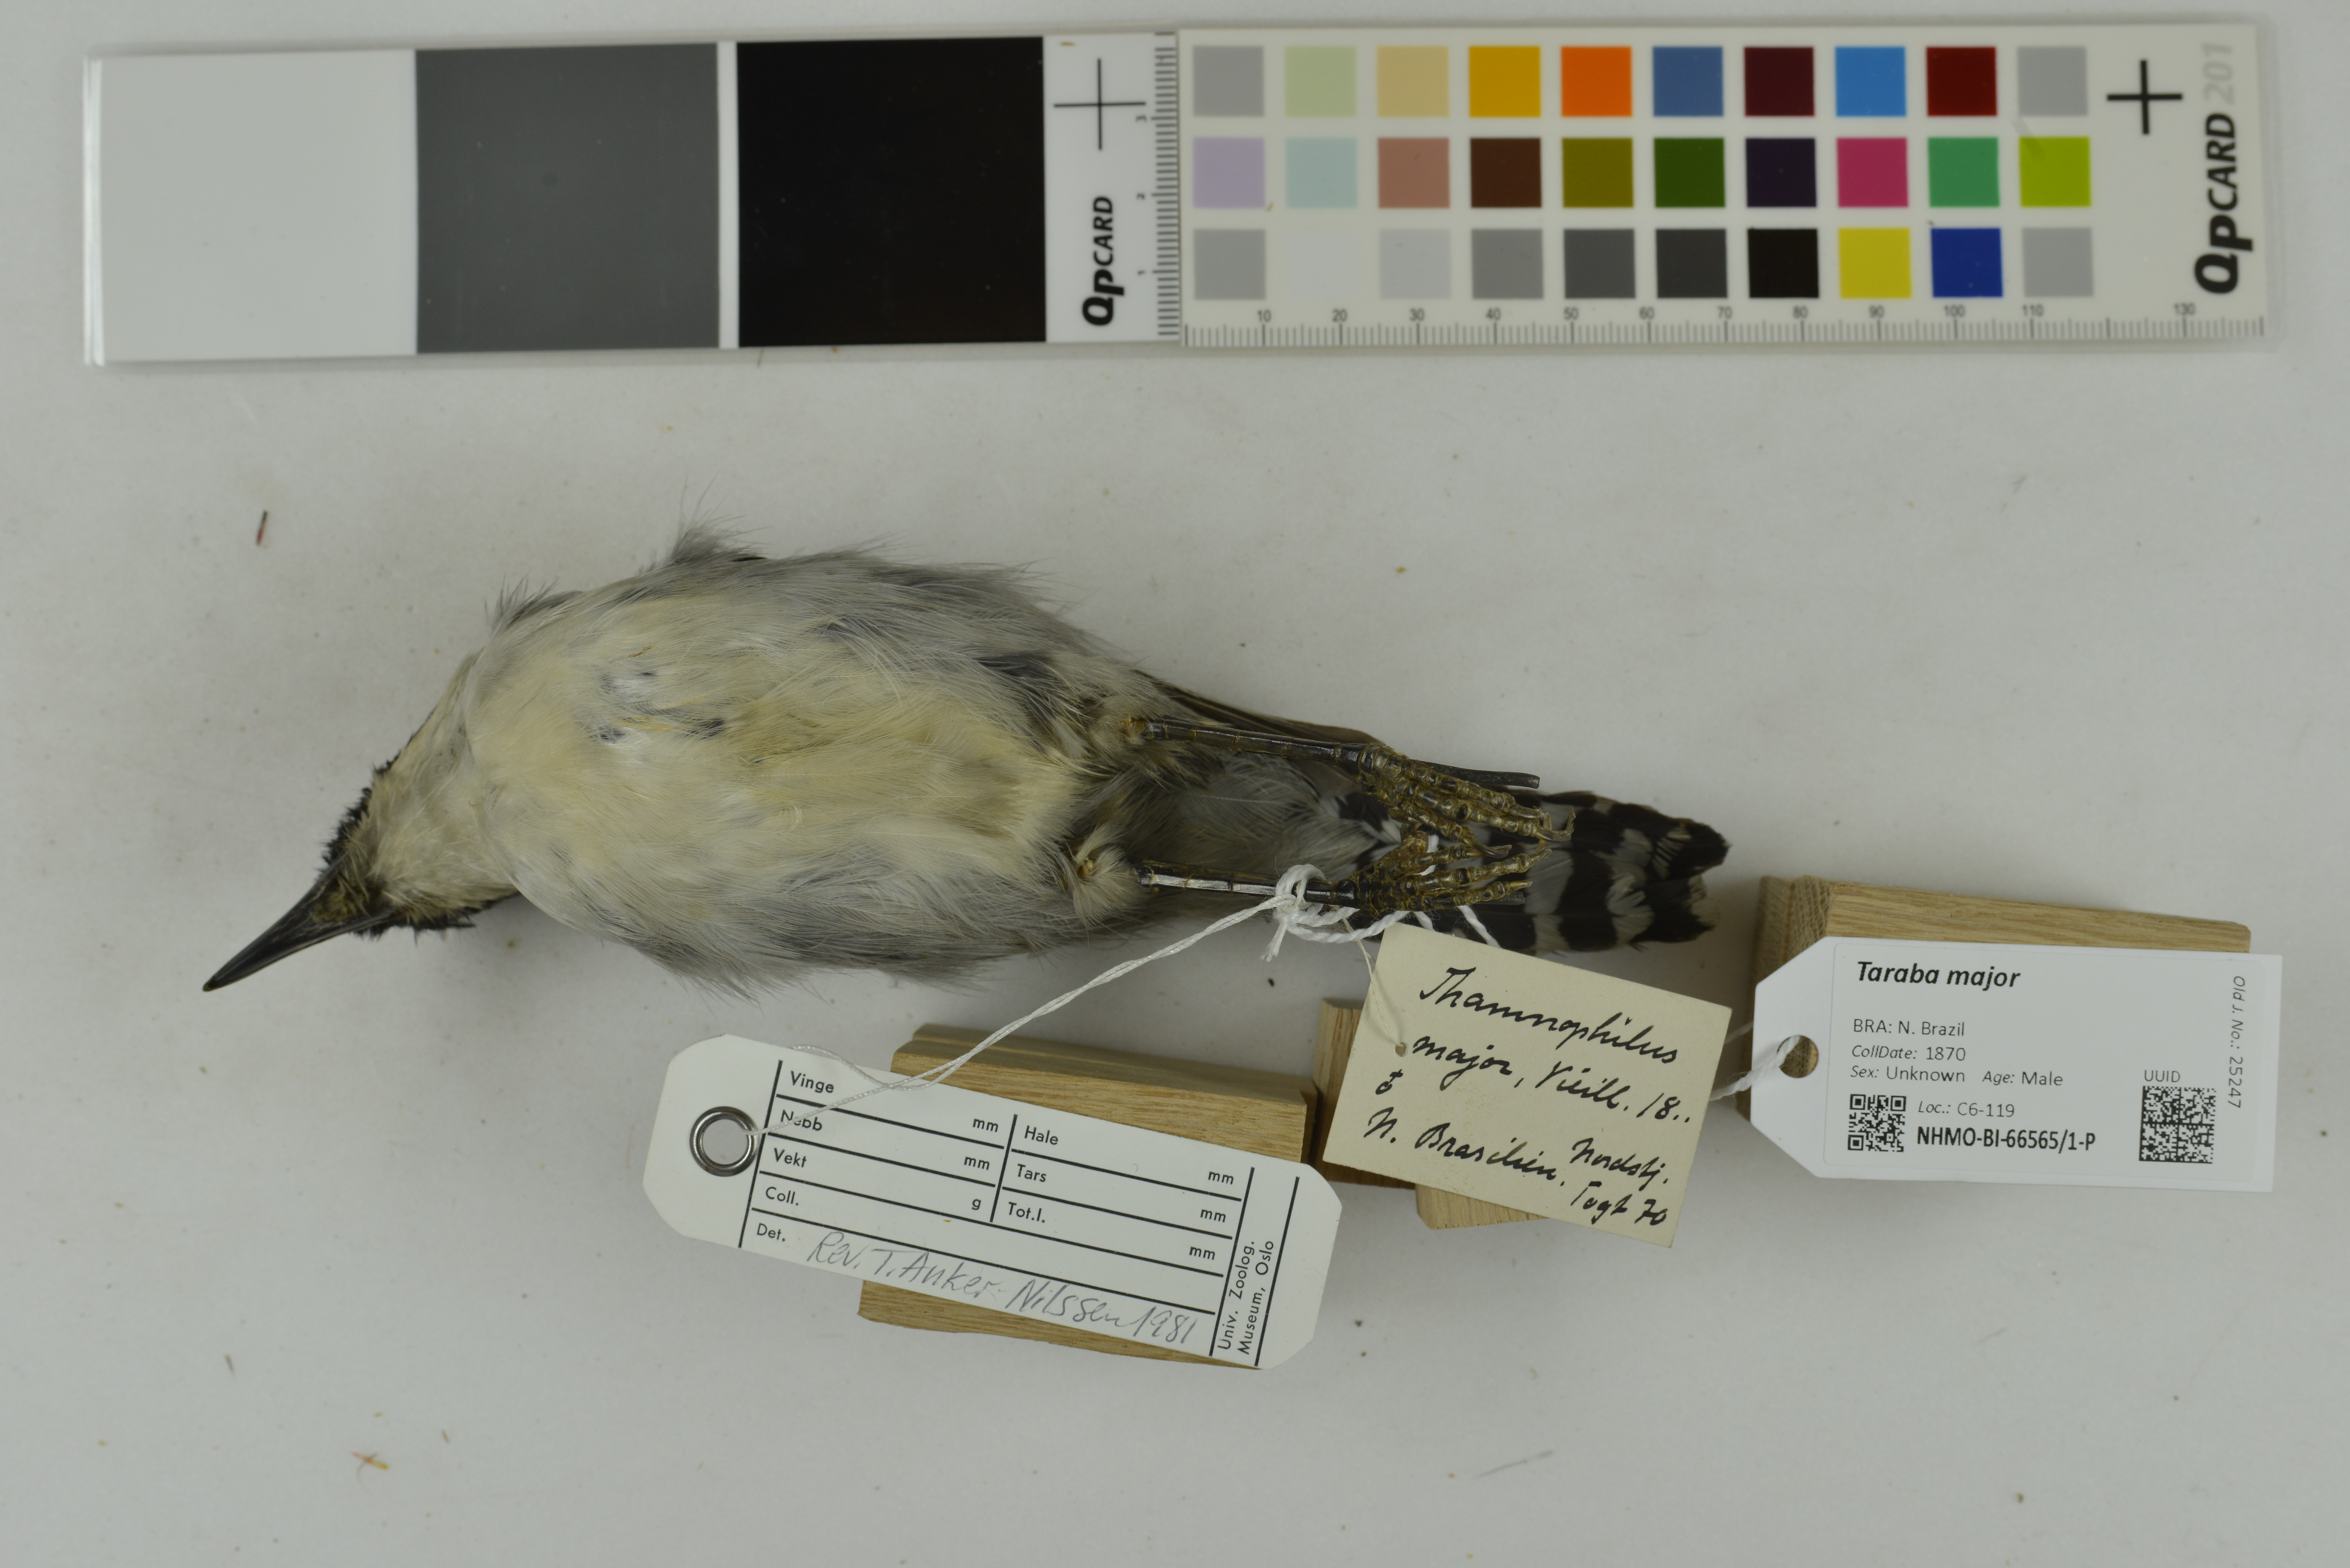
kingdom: Animalia
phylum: Chordata
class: Aves
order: Passeriformes
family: Thamnophilidae
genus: Taraba
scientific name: Taraba major
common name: Great antshrike
